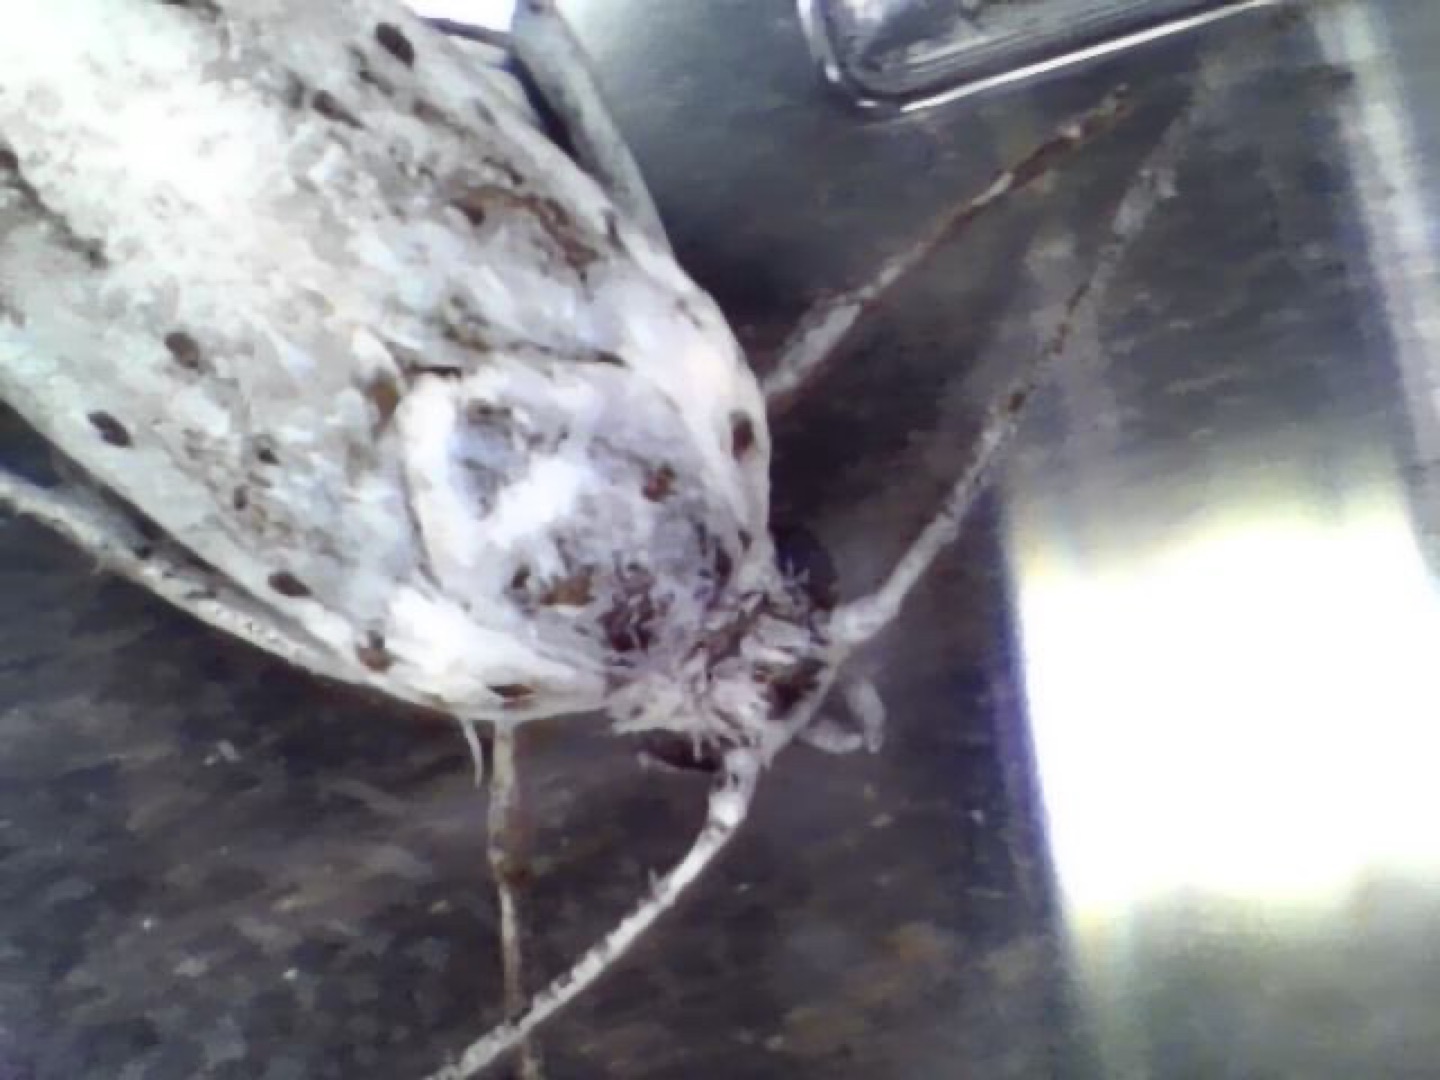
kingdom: Animalia
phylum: Arthropoda
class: Insecta
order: Lepidoptera
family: Yponomeutidae
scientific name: Yponomeutidae
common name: Spindemøl
